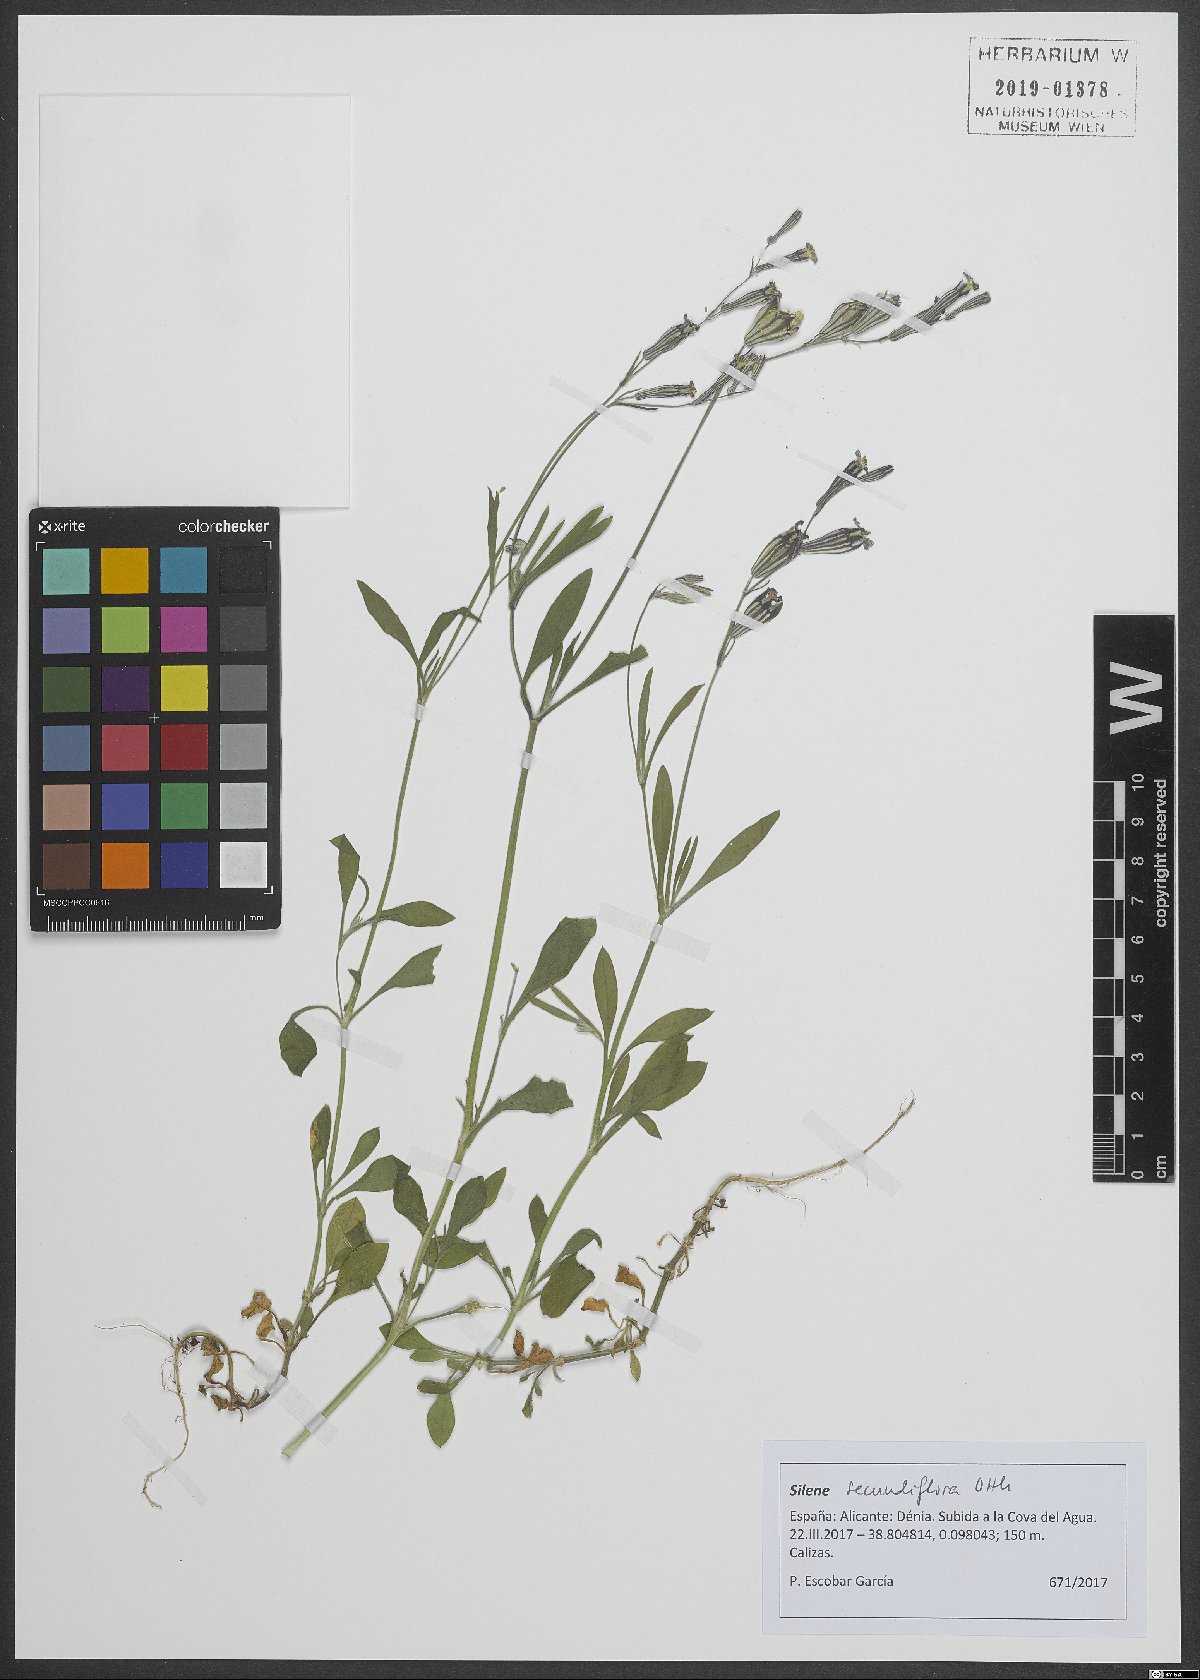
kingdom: Plantae
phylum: Tracheophyta
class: Magnoliopsida
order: Caryophyllales
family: Caryophyllaceae
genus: Silene
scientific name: Silene secundiflora
